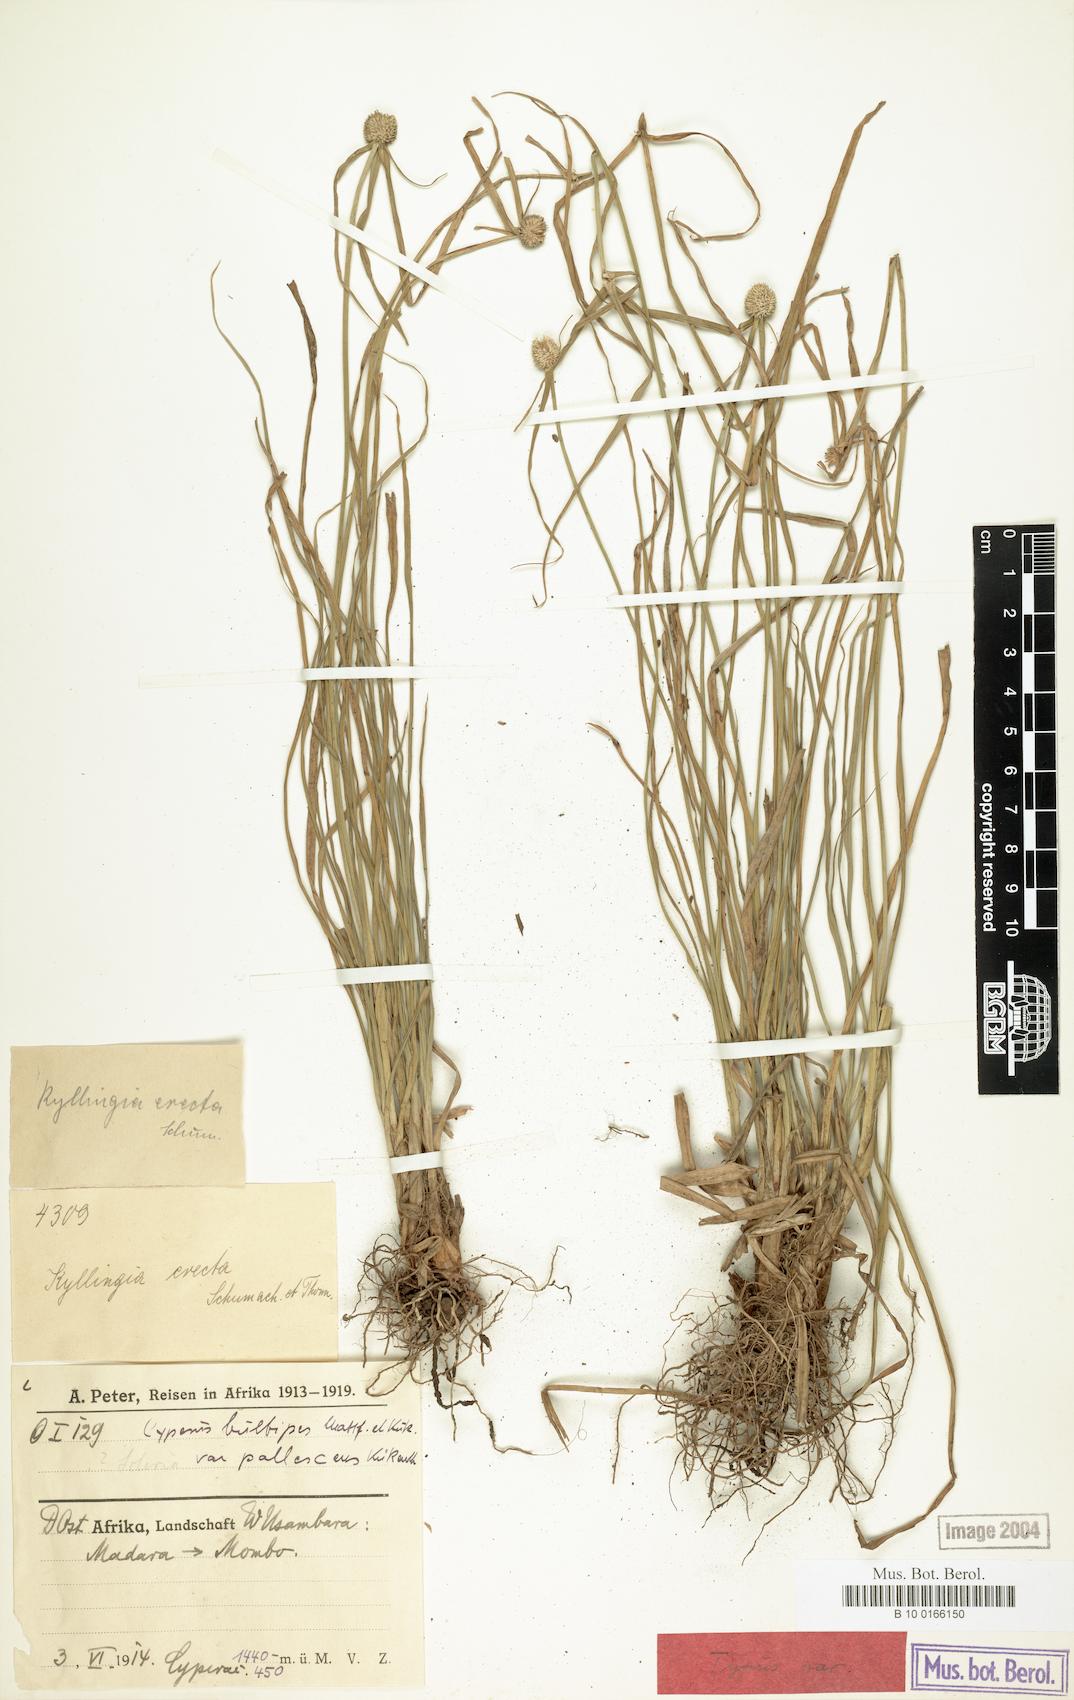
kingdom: Plantae
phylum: Tracheophyta
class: Liliopsida
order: Poales
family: Cyperaceae
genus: Cyperus
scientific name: Cyperus bulbipes
